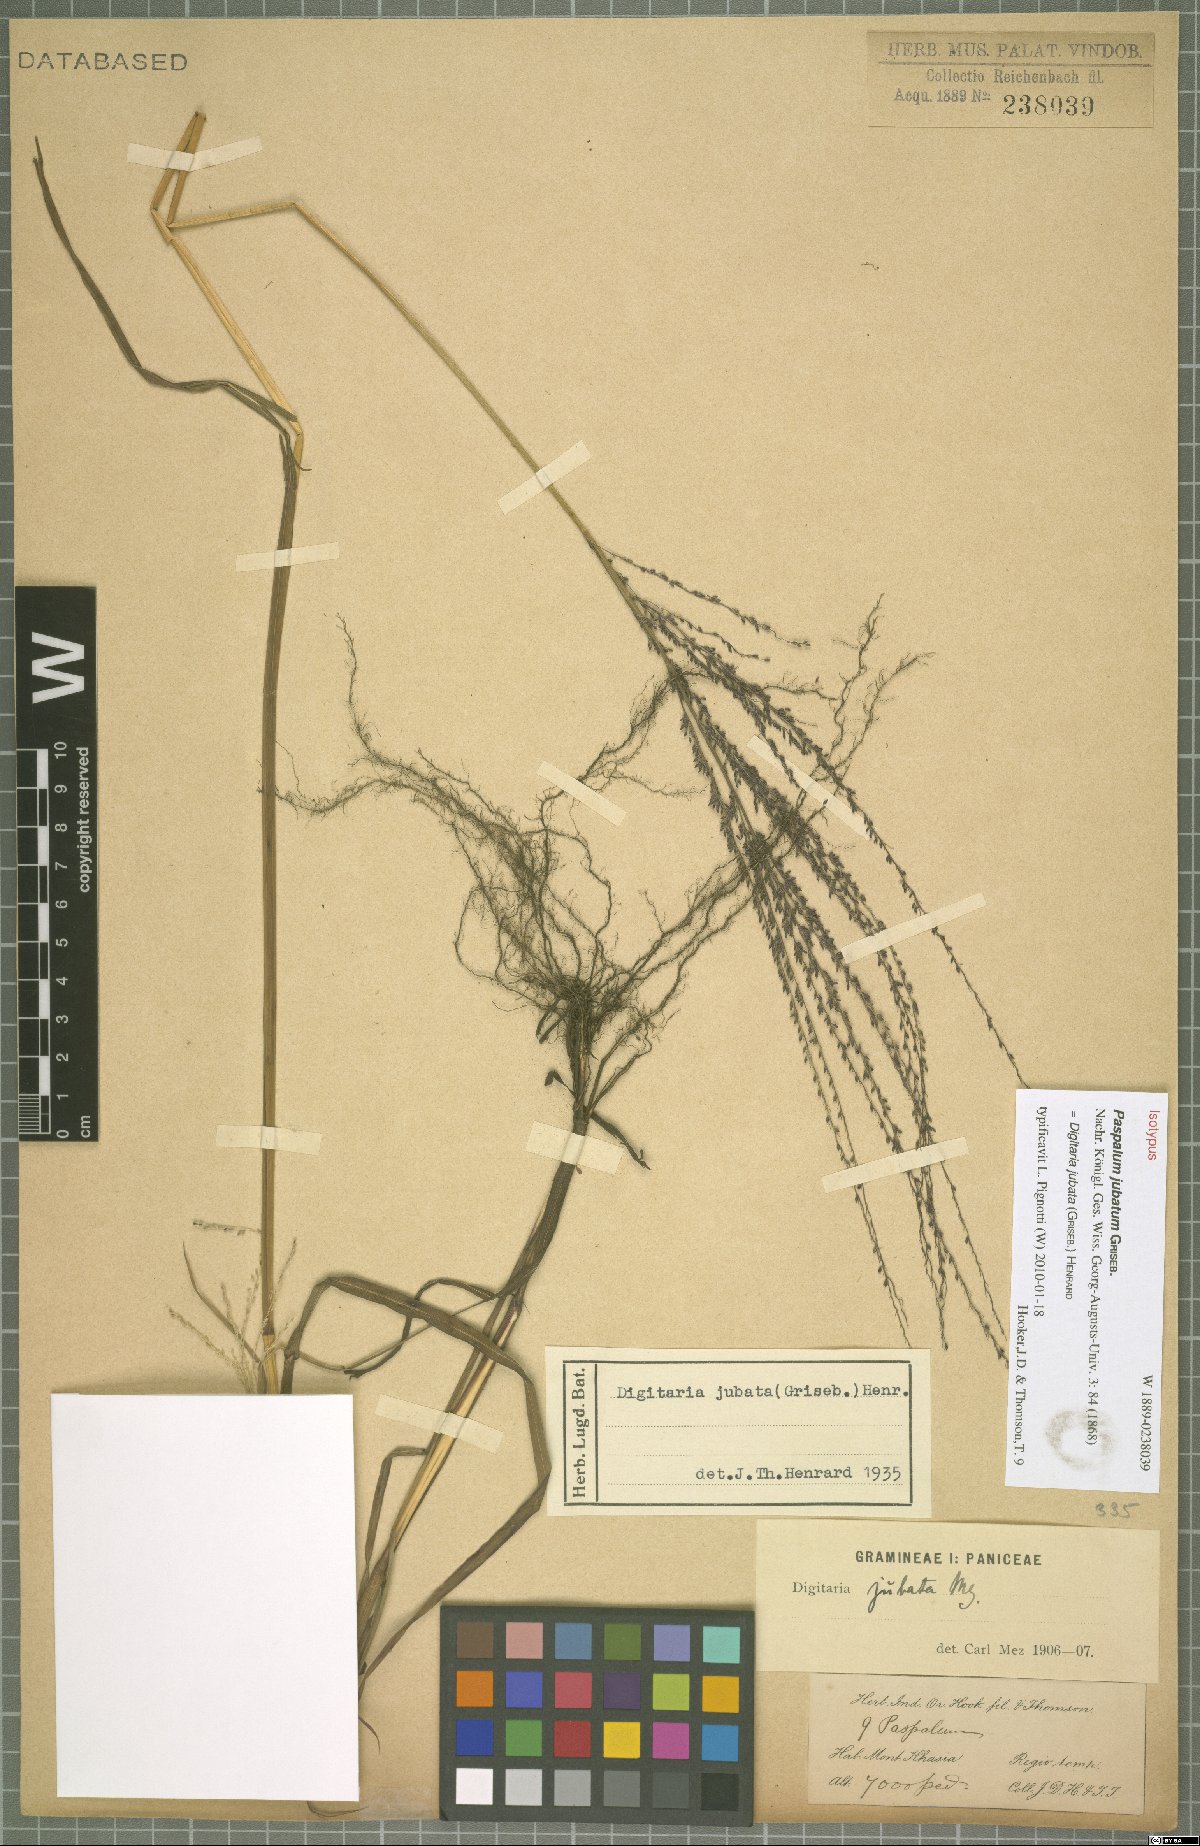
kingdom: Plantae
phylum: Tracheophyta
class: Liliopsida
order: Poales
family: Poaceae
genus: Digitaria
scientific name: Digitaria jubata
